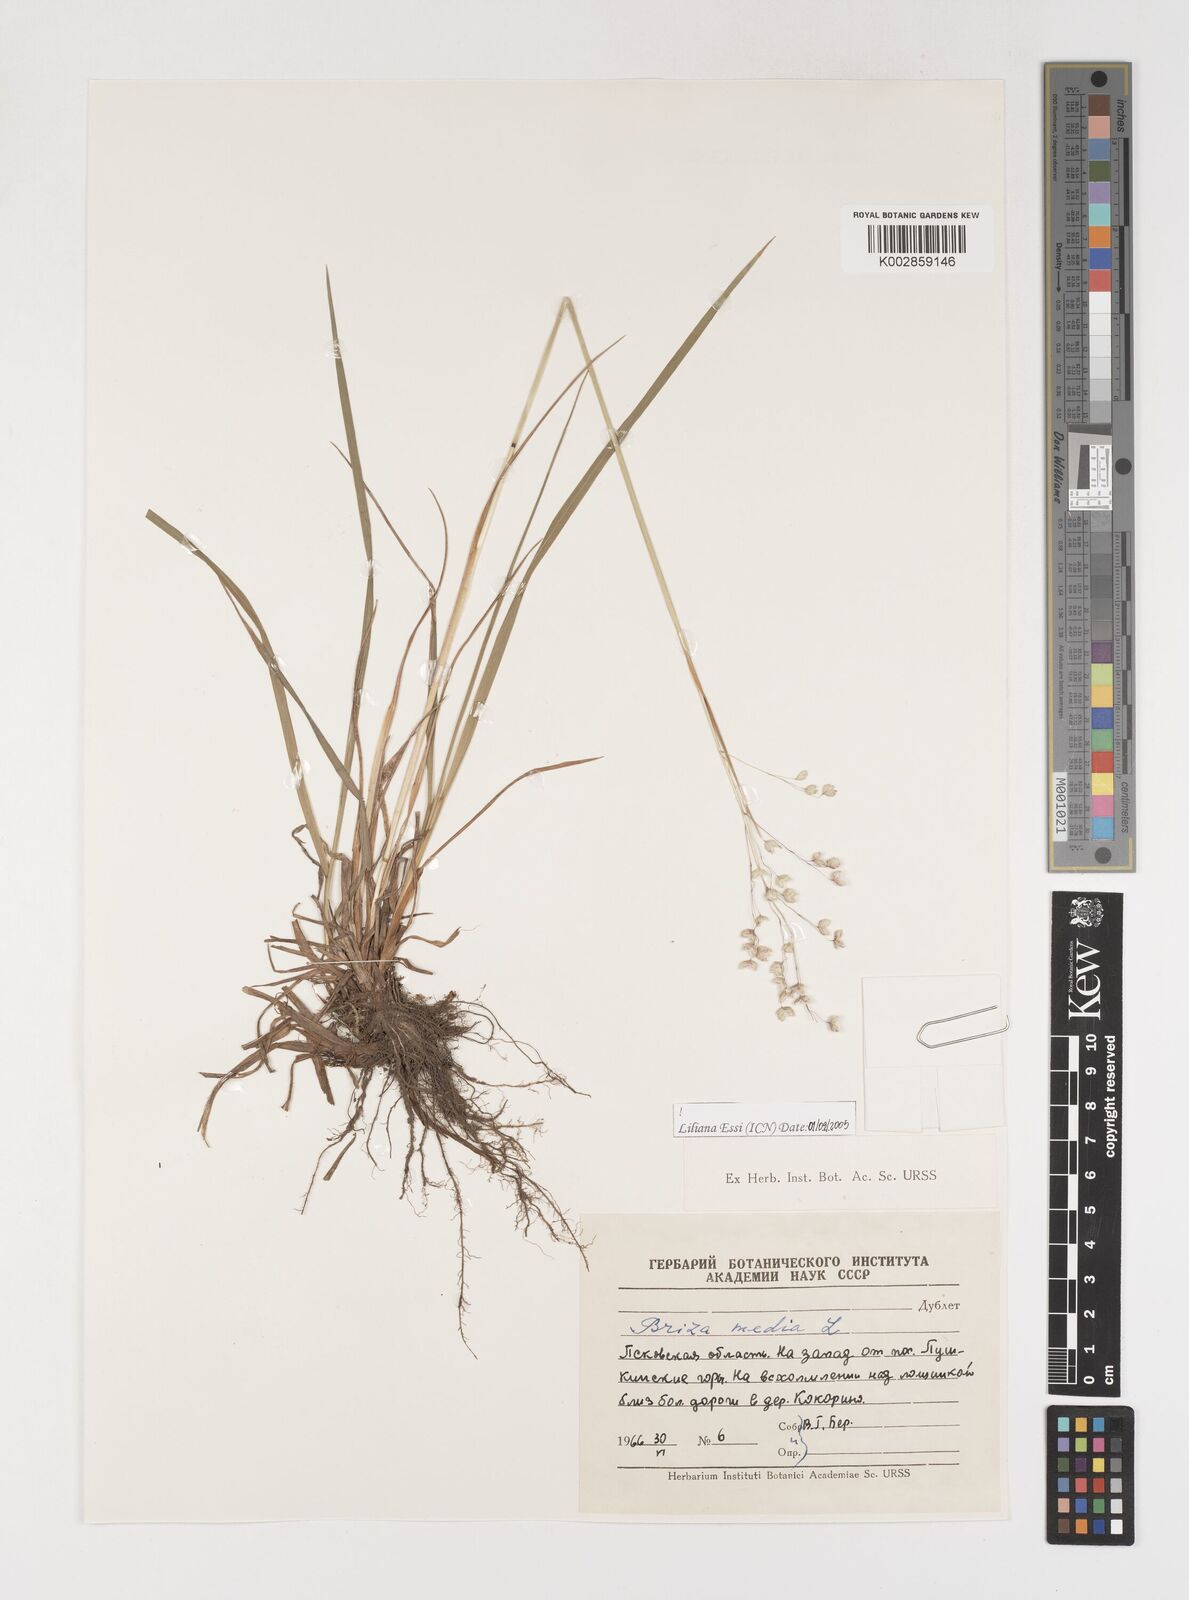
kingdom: Plantae
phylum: Tracheophyta
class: Liliopsida
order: Poales
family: Poaceae
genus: Briza
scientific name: Briza media
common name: Quaking grass
